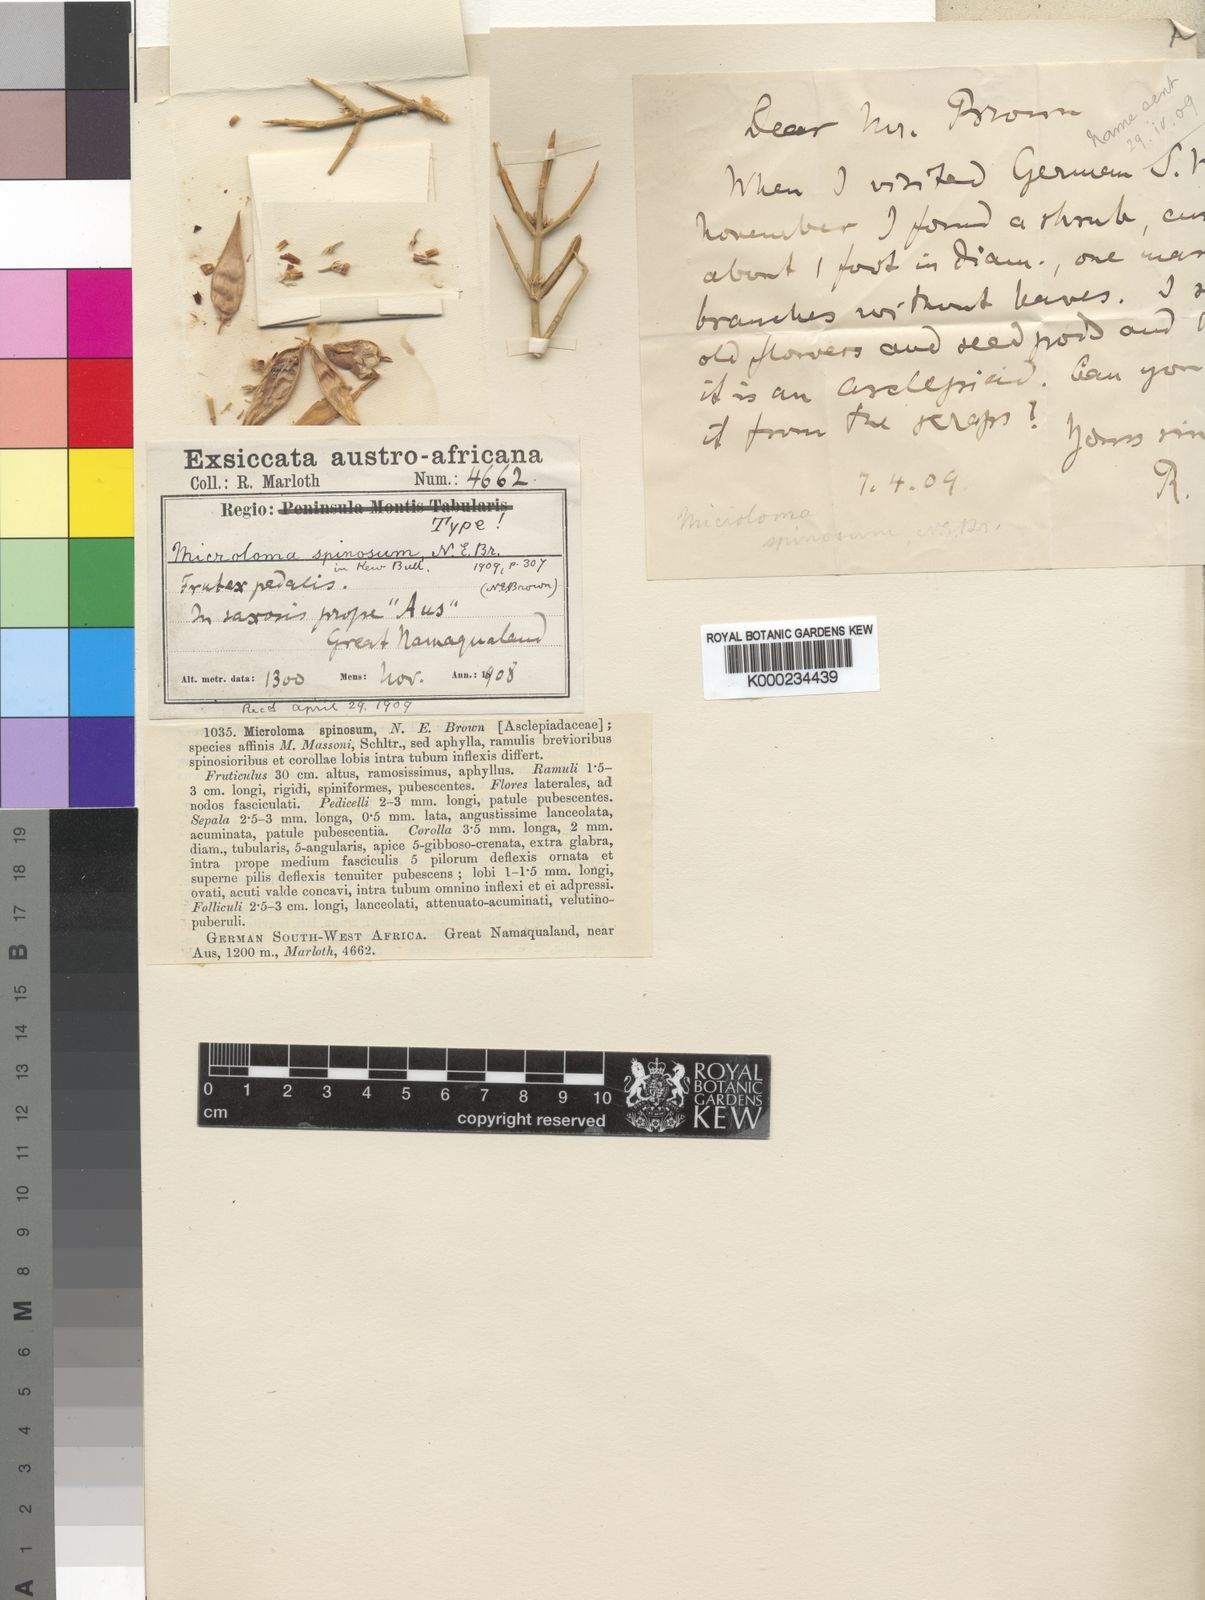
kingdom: Plantae
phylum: Tracheophyta
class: Magnoliopsida
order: Gentianales
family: Apocynaceae
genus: Microloma
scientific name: Microloma armatum
